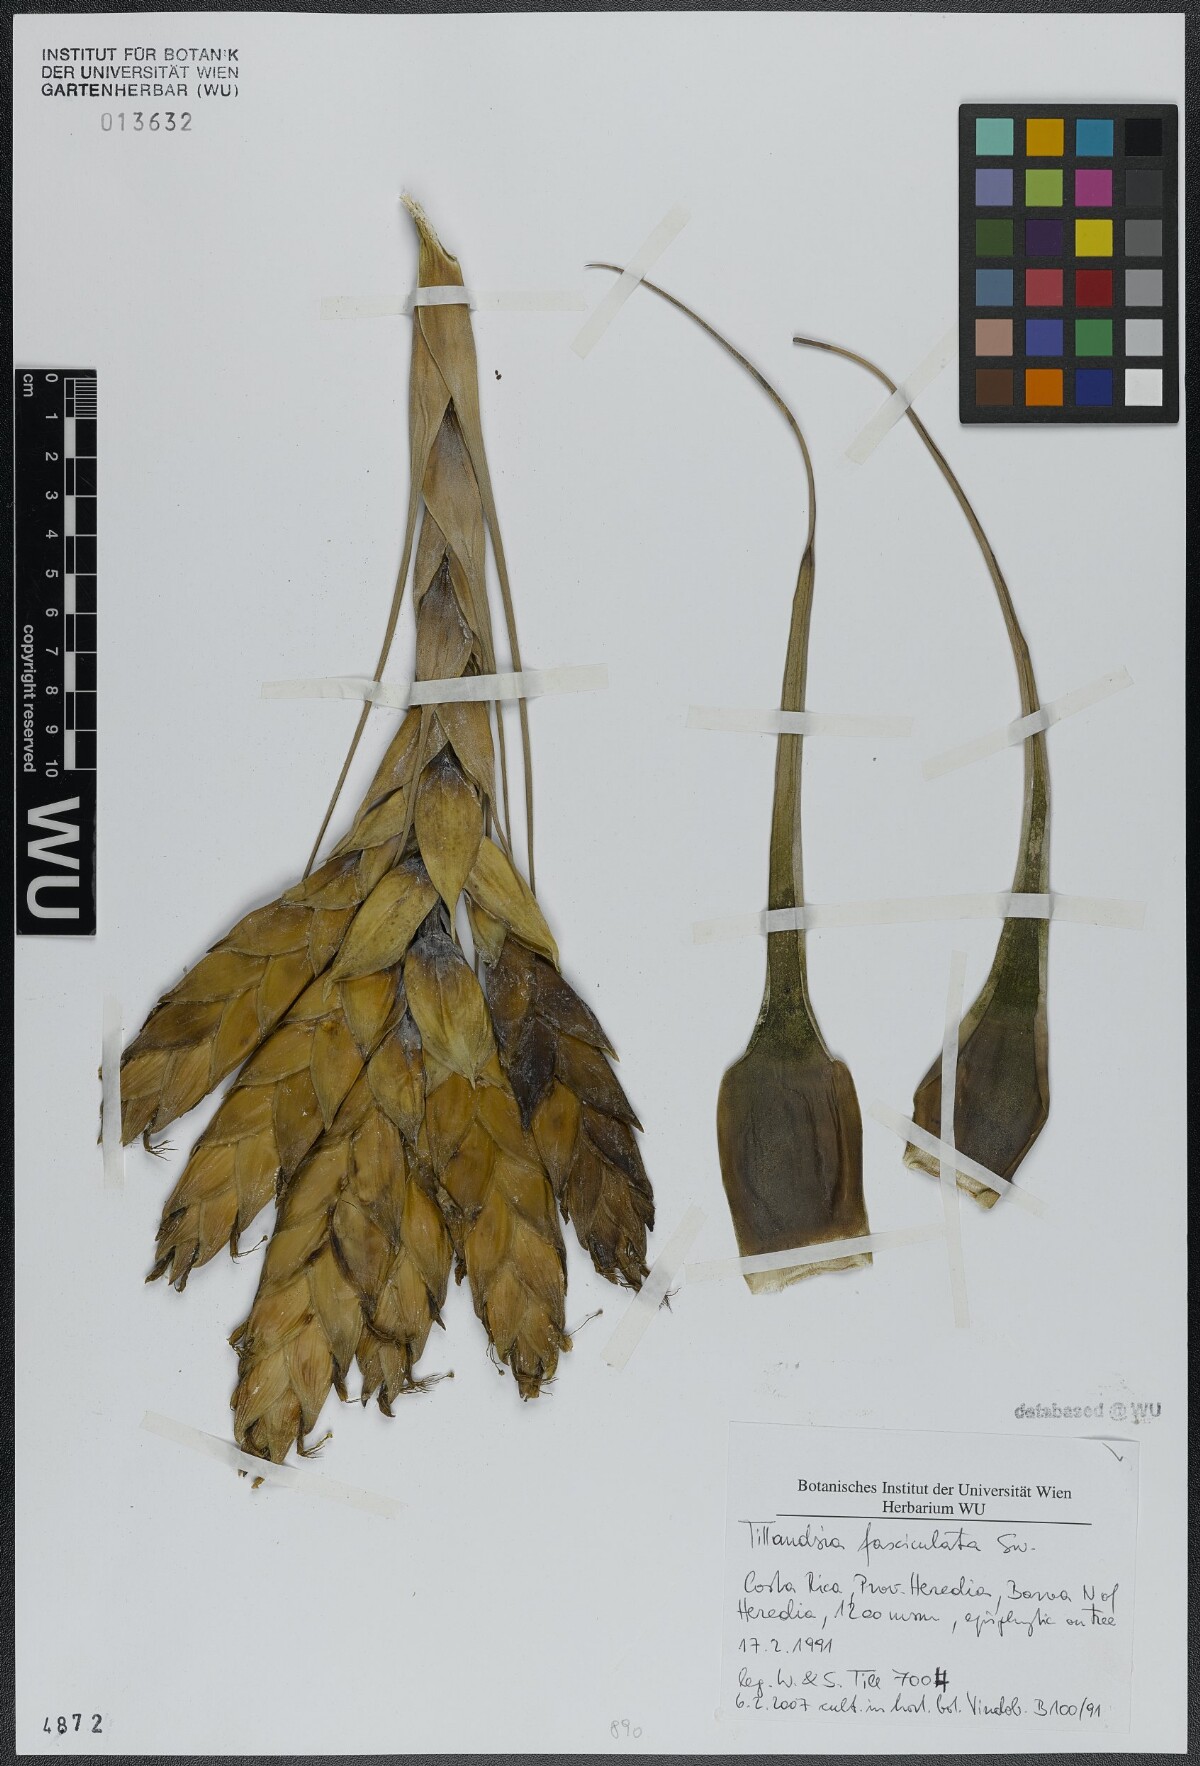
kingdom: Plantae
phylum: Tracheophyta
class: Liliopsida
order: Poales
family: Bromeliaceae
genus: Tillandsia
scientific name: Tillandsia fasciculata
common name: Giant airplant
